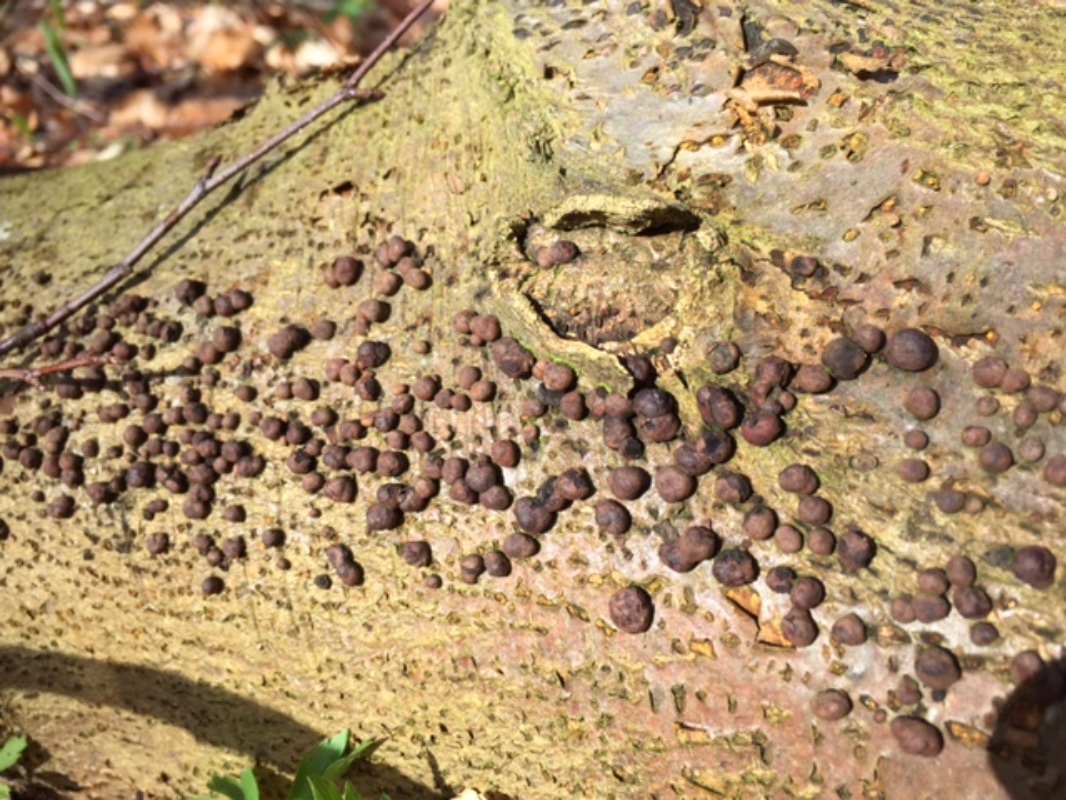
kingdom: Fungi
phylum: Ascomycota
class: Sordariomycetes
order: Xylariales
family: Hypoxylaceae
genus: Hypoxylon
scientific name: Hypoxylon fragiforme
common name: kuljordbær
